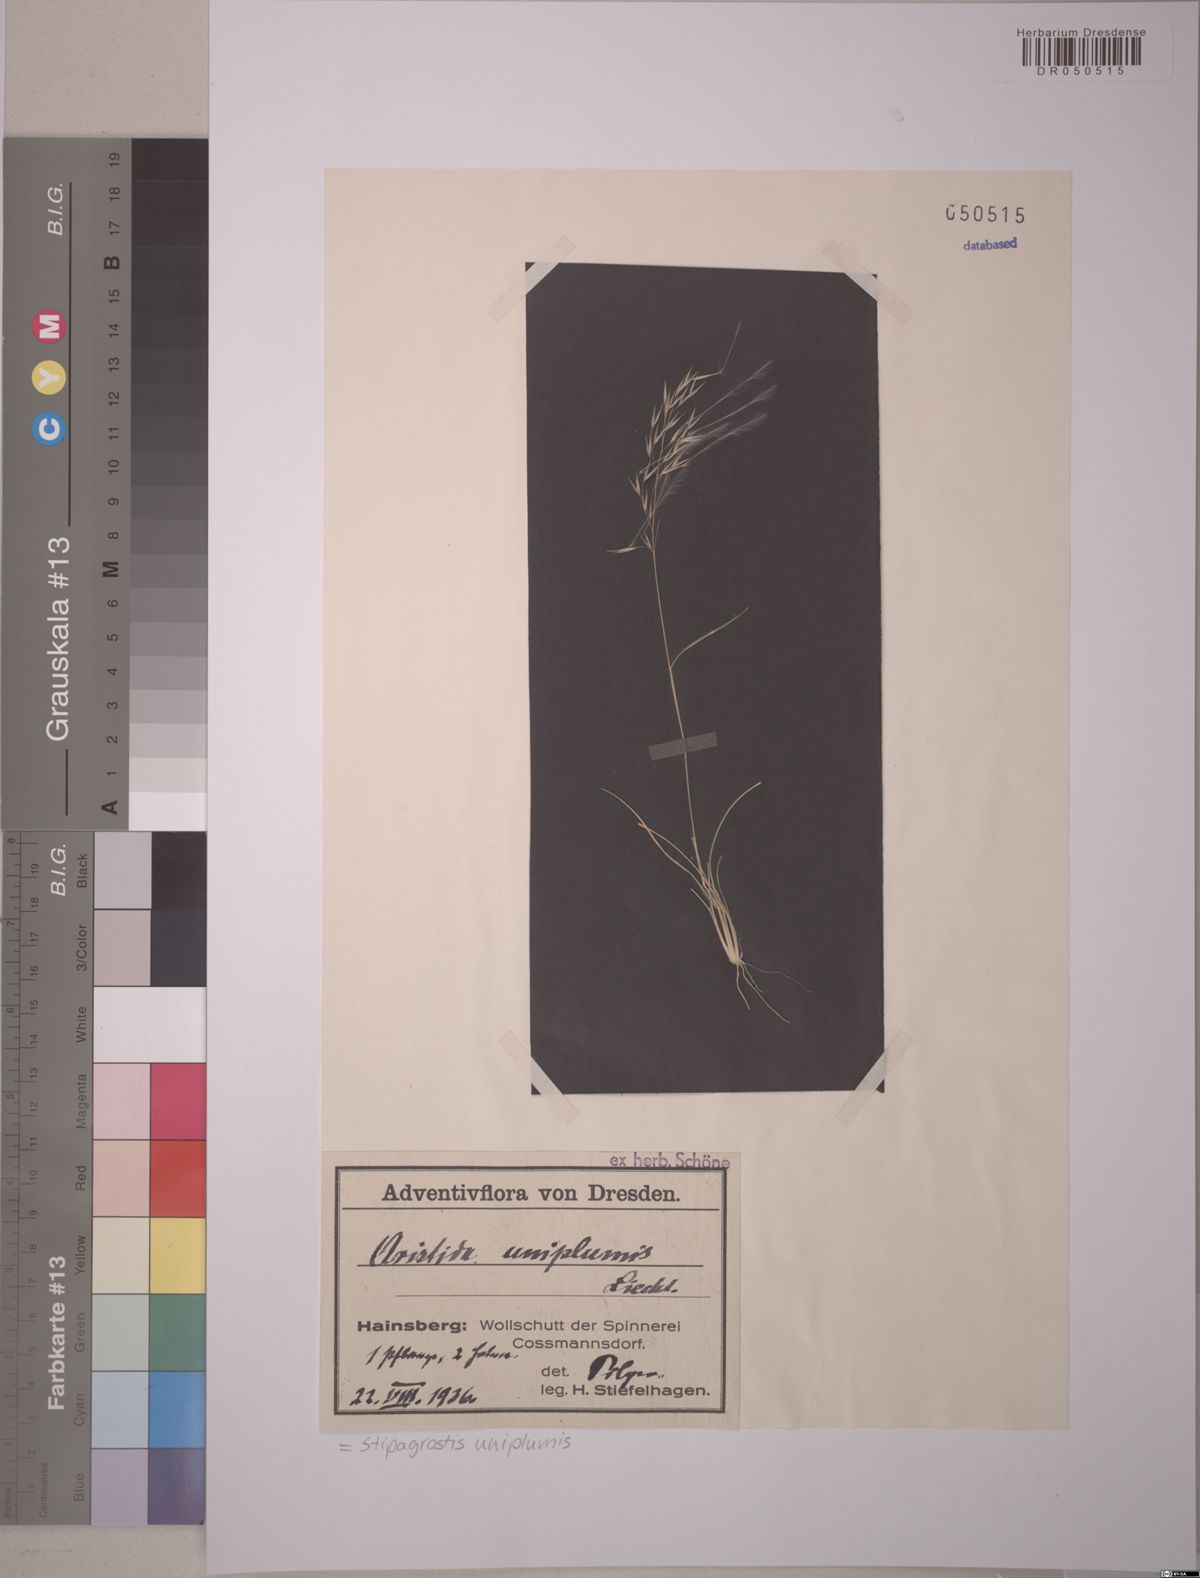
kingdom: Plantae
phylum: Tracheophyta
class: Liliopsida
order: Poales
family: Poaceae
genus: Stipagrostis
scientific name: Stipagrostis uniplumis
